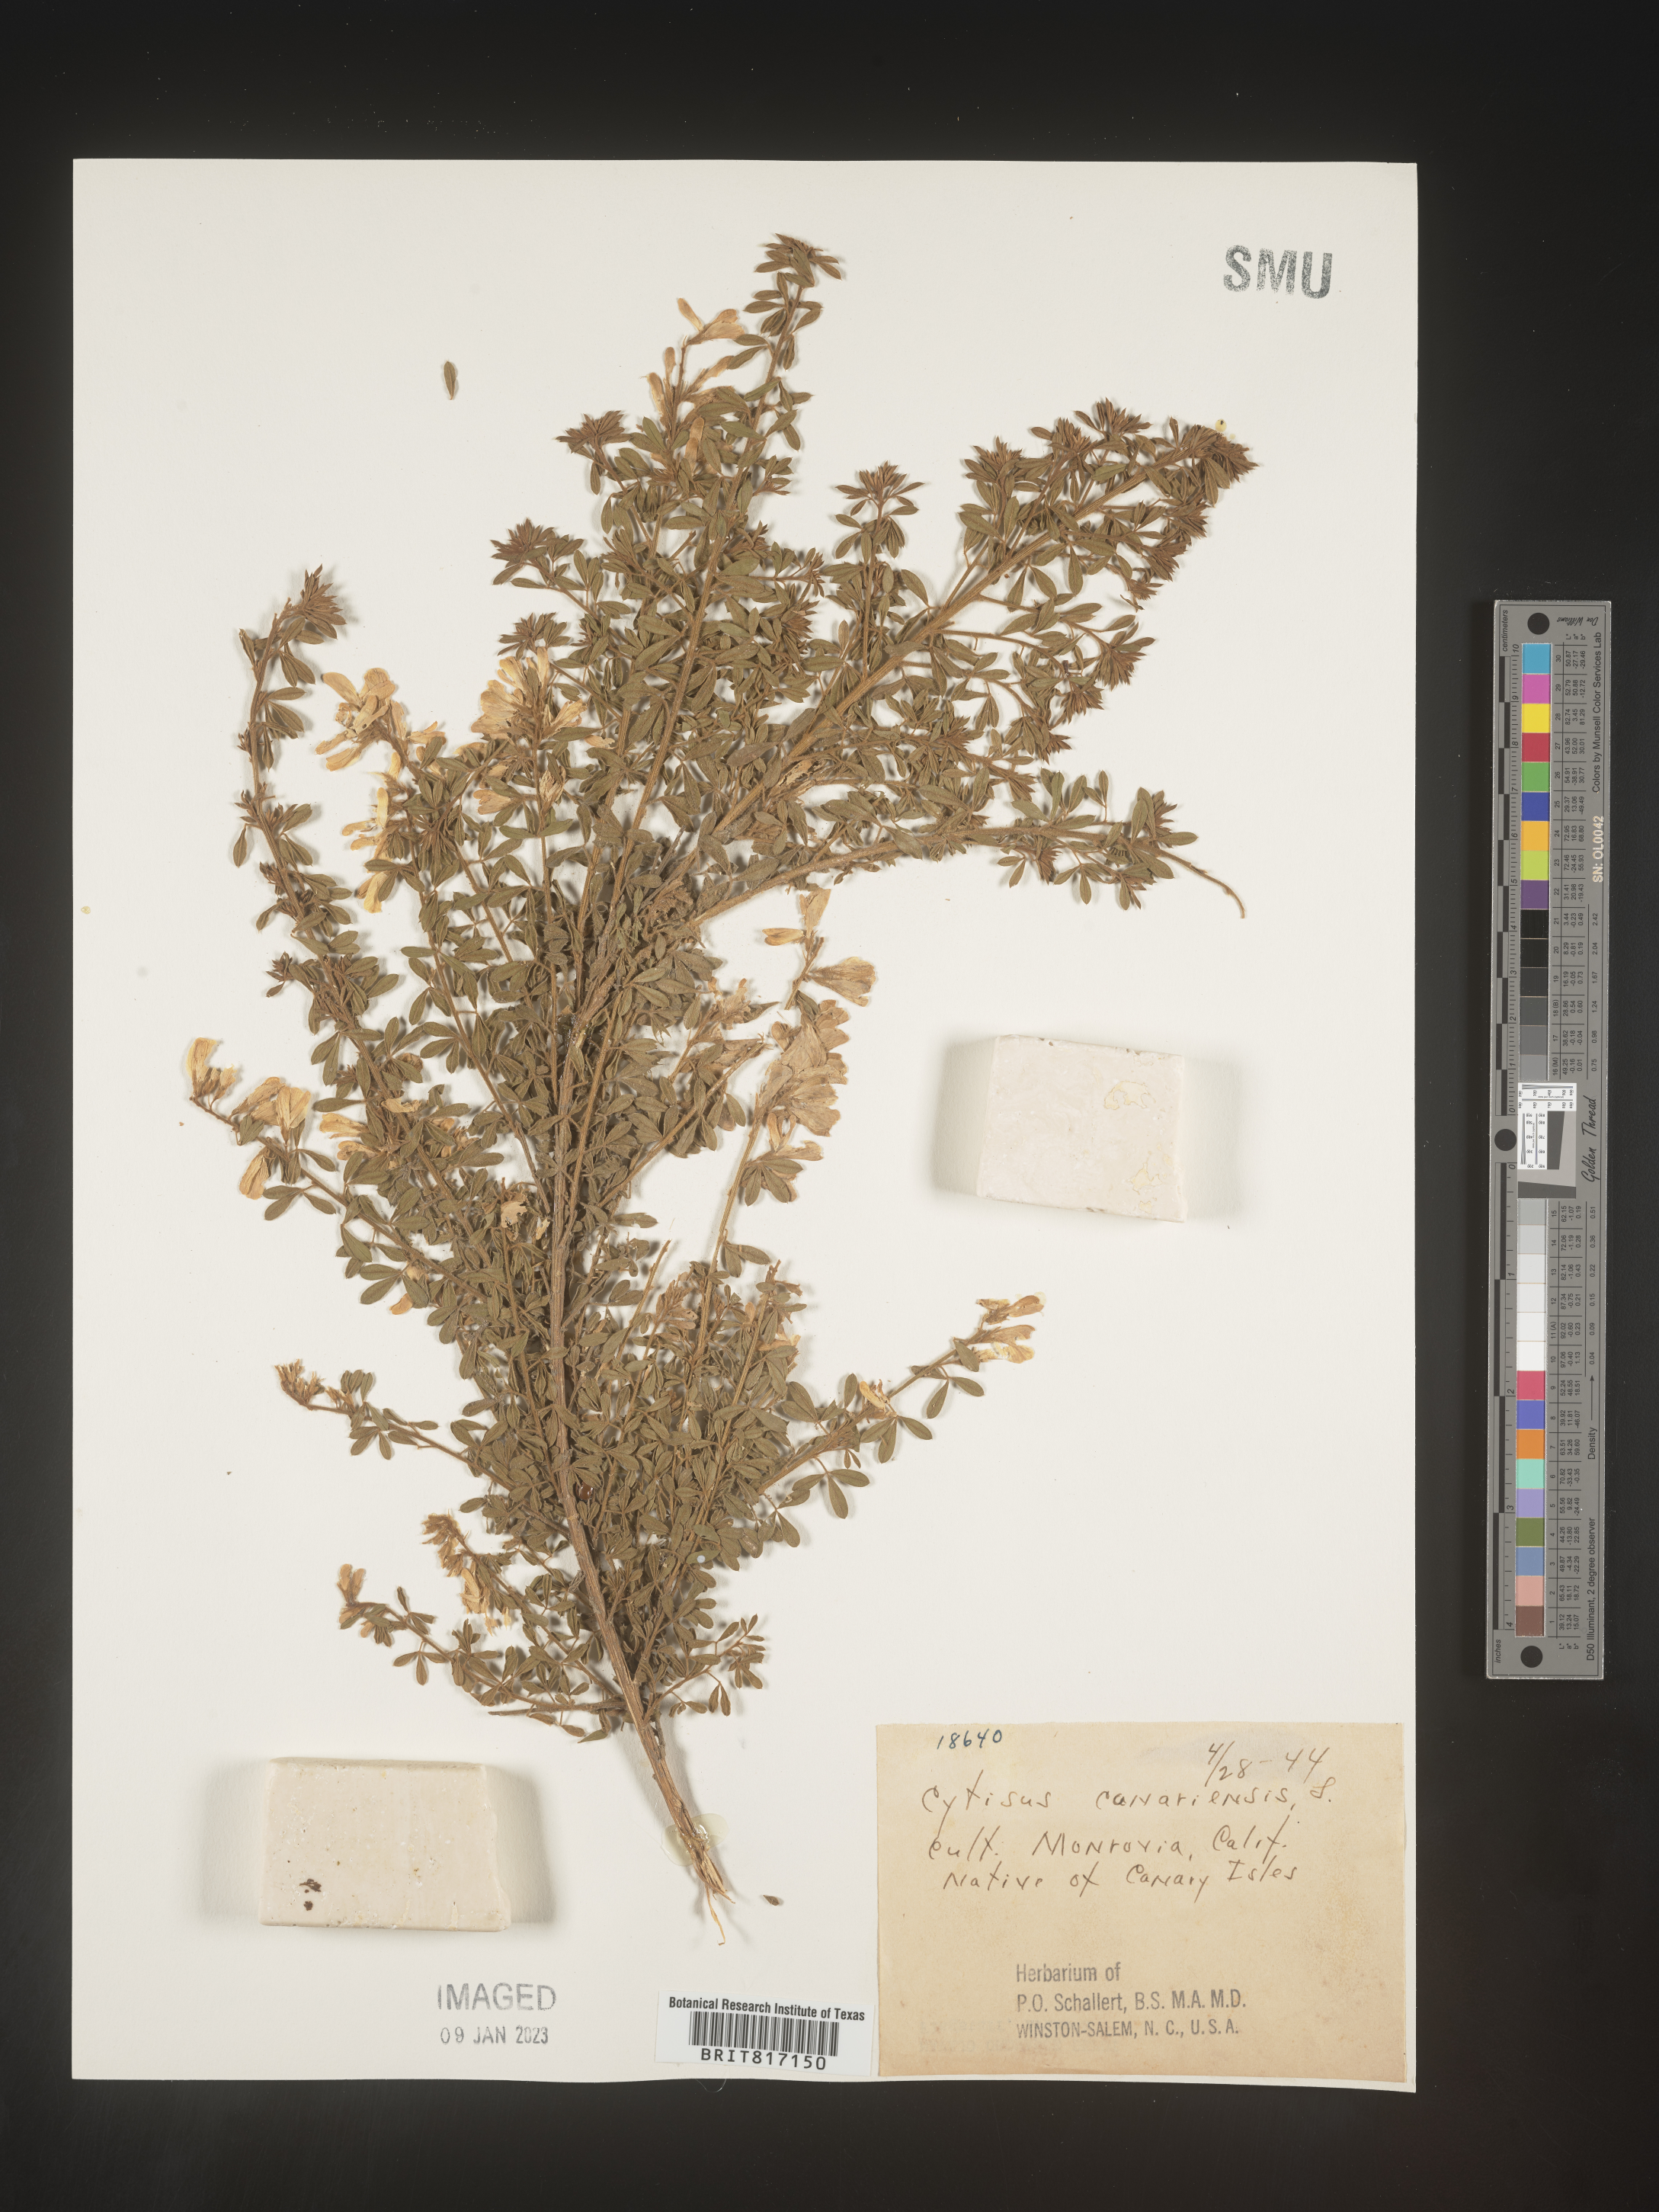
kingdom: Plantae
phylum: Tracheophyta
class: Magnoliopsida
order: Fabales
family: Fabaceae
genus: Cytisus
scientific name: Cytisus
